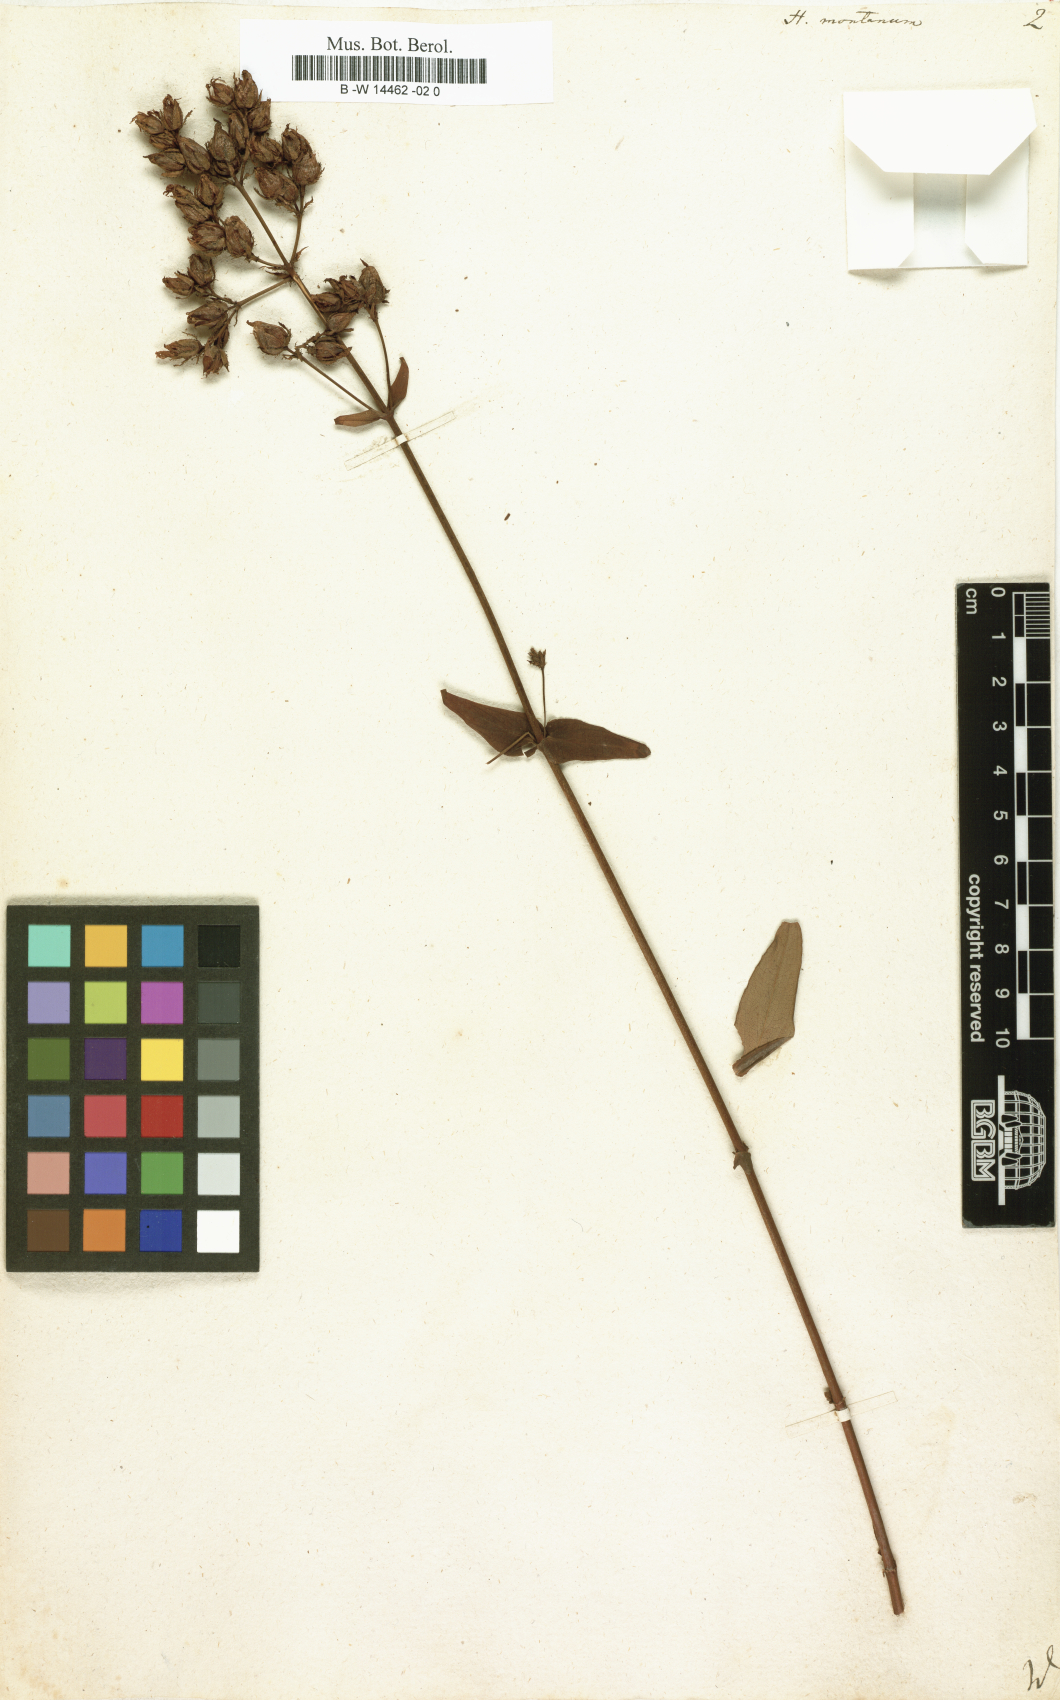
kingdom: Plantae
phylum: Tracheophyta
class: Magnoliopsida
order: Malpighiales
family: Hypericaceae
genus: Hypericum
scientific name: Hypericum montanum
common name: Pale st. john's-wort
